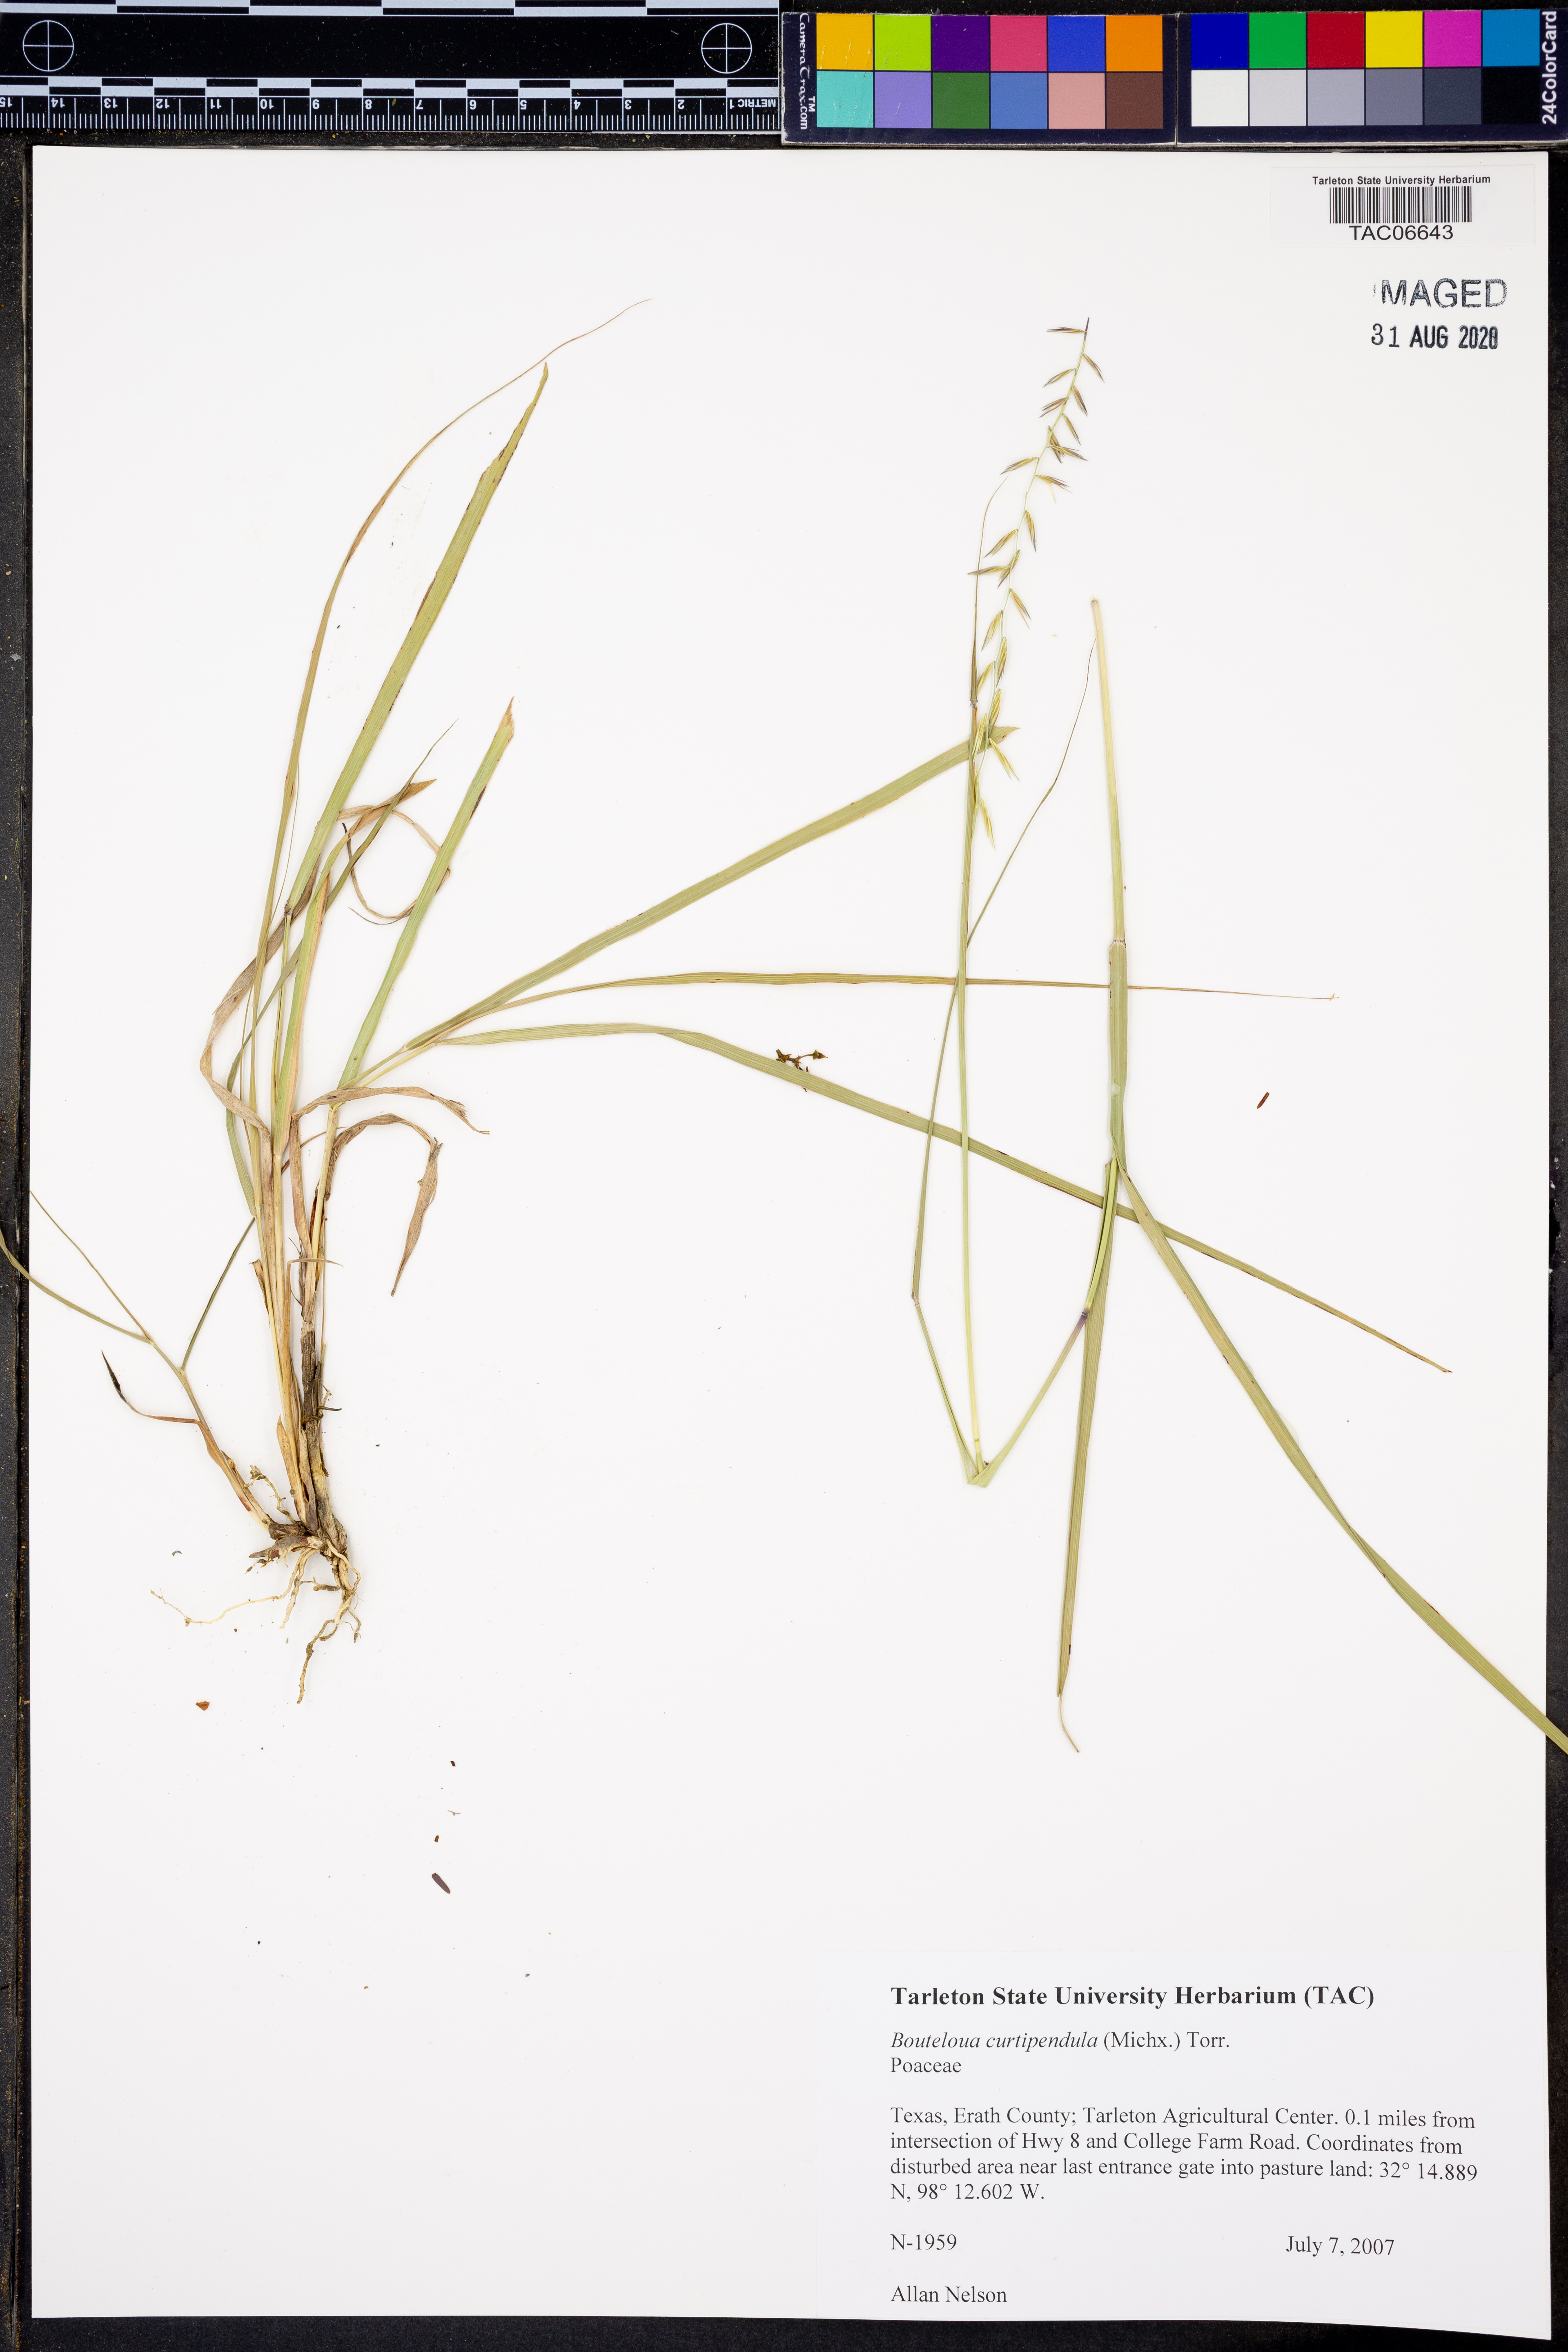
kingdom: Plantae
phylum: Tracheophyta
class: Liliopsida
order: Poales
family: Poaceae
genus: Bouteloua
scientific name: Bouteloua curtipendula
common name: Side-oats grama
